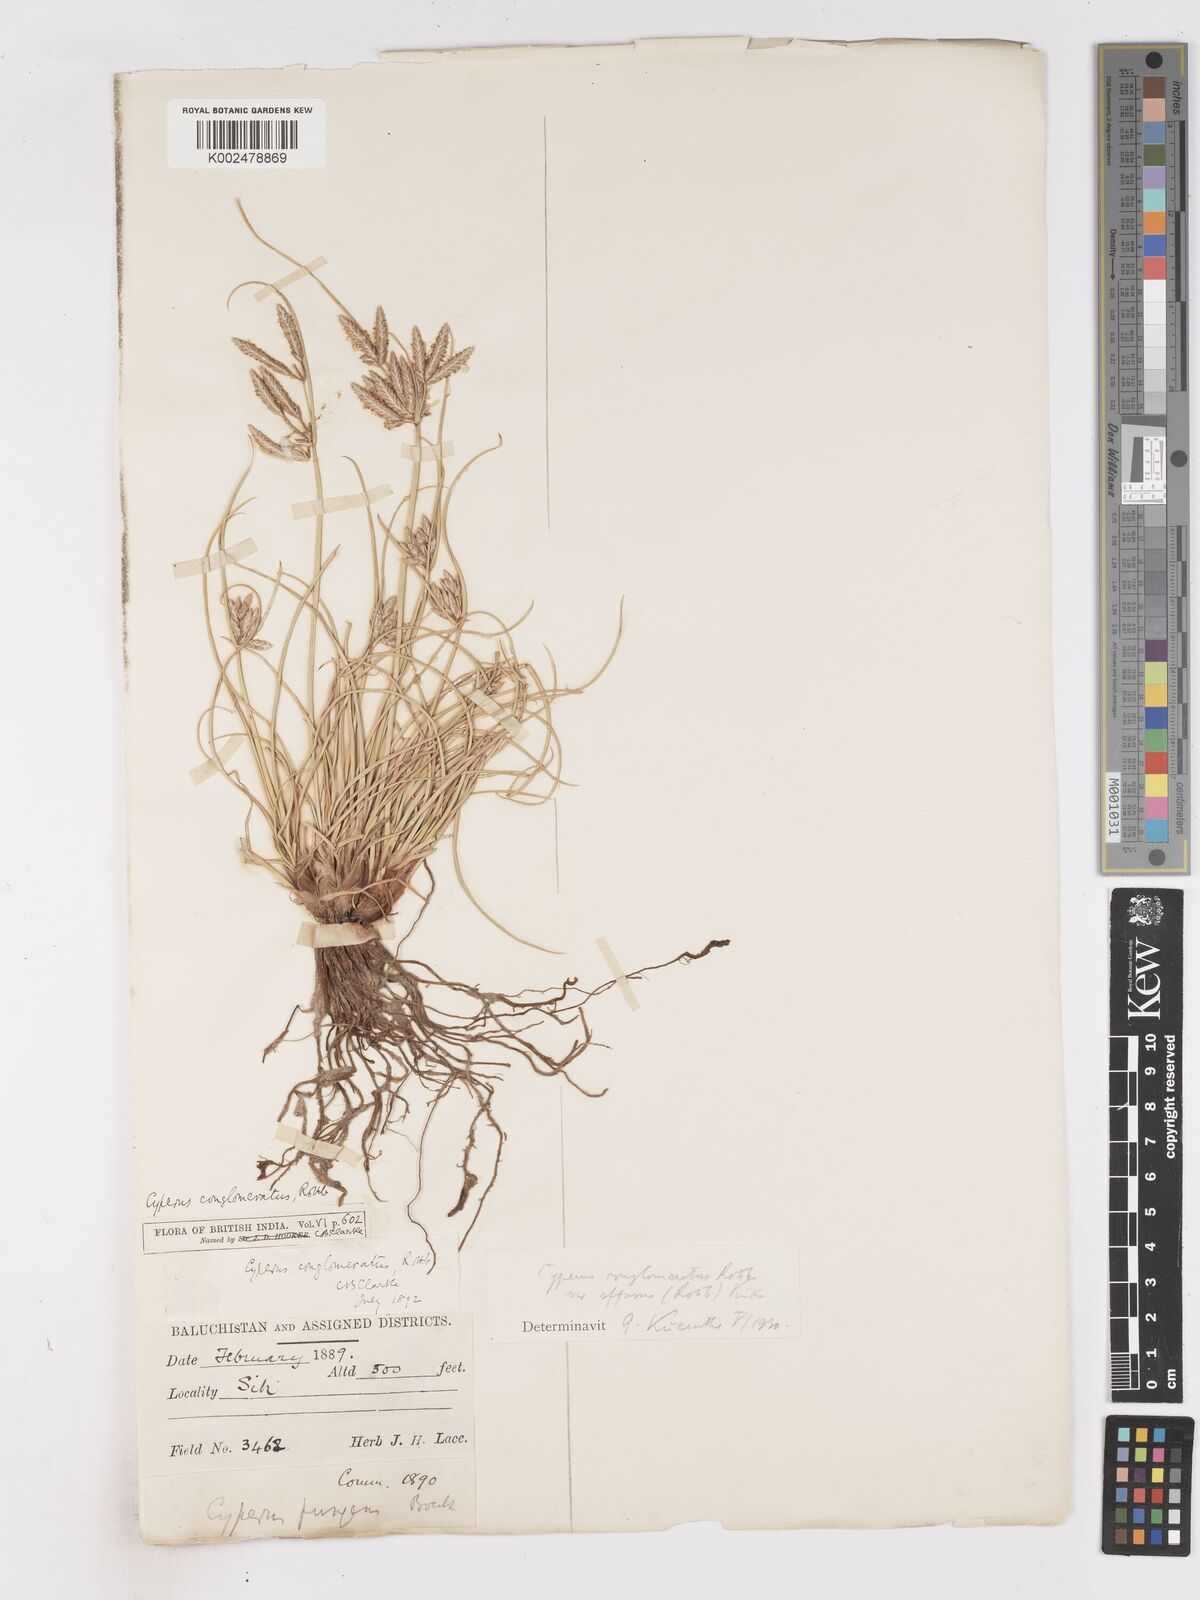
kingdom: Plantae
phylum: Tracheophyta
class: Liliopsida
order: Poales
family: Cyperaceae
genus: Cyperus
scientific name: Cyperus aucheri
